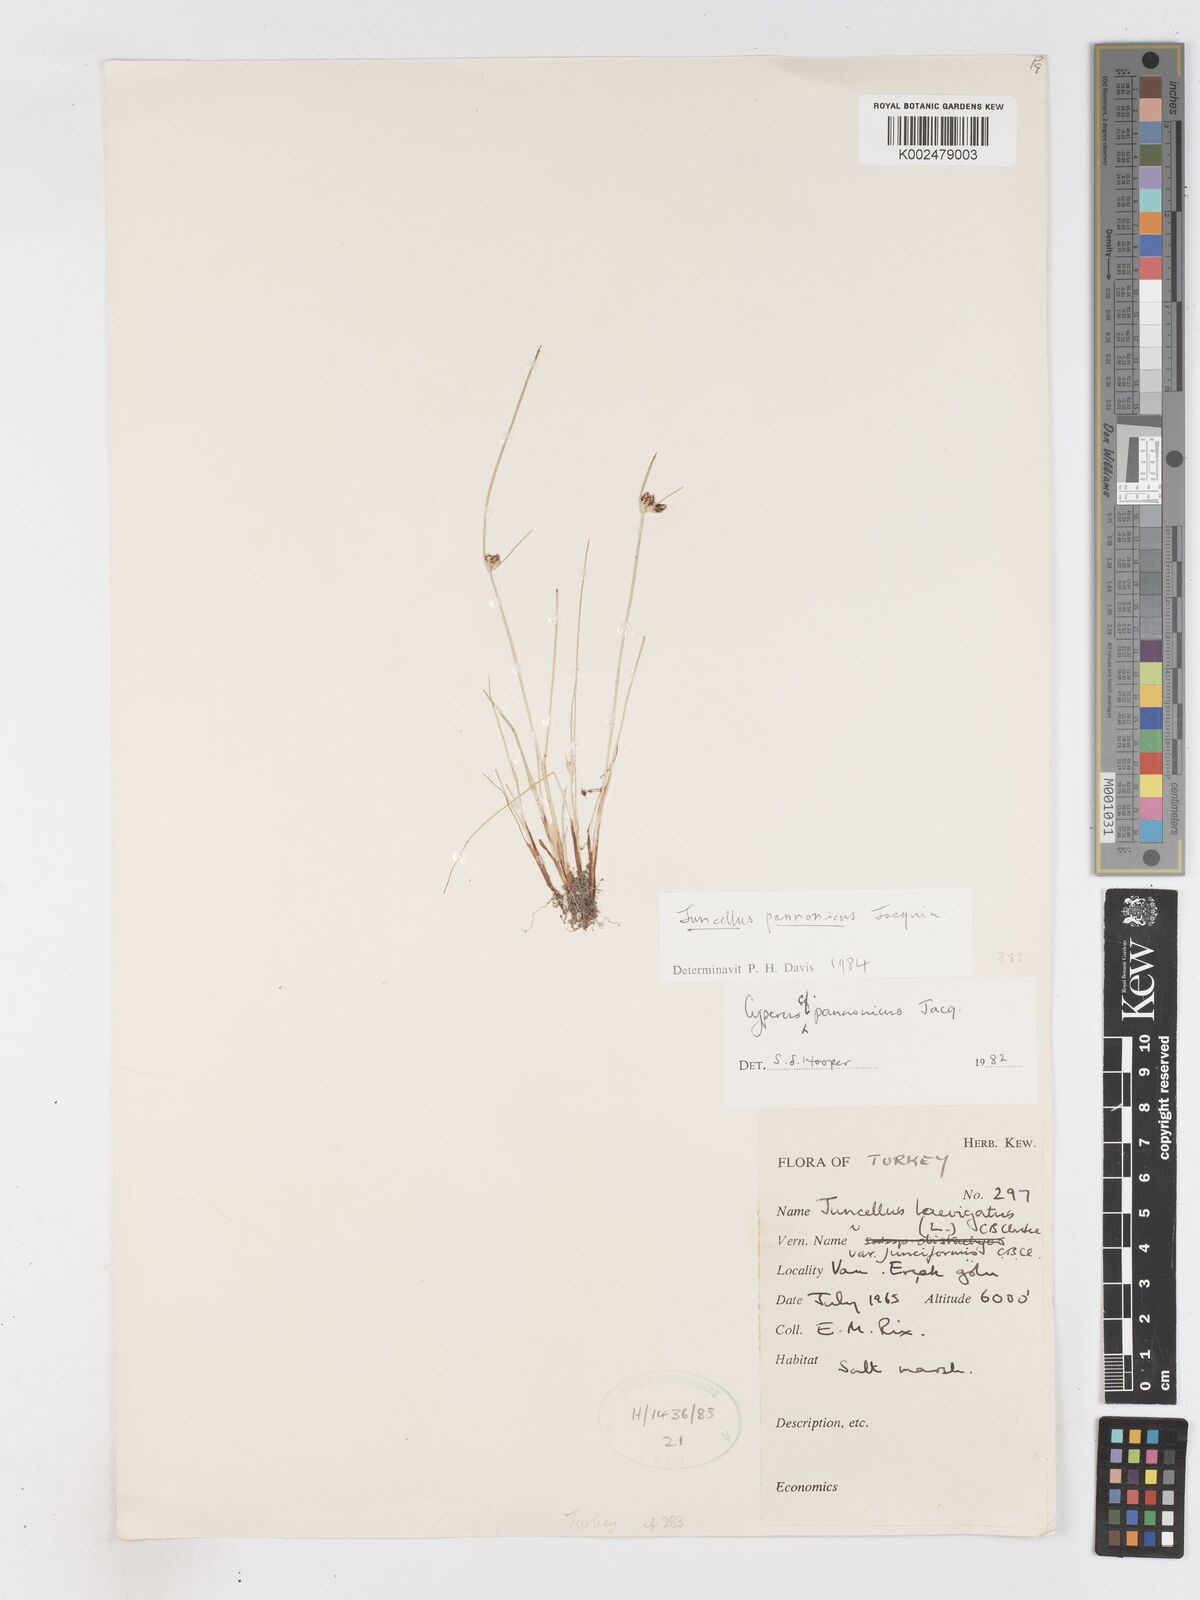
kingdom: Plantae
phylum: Tracheophyta
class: Liliopsida
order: Poales
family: Cyperaceae
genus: Cyperus
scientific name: Cyperus pannonicus
